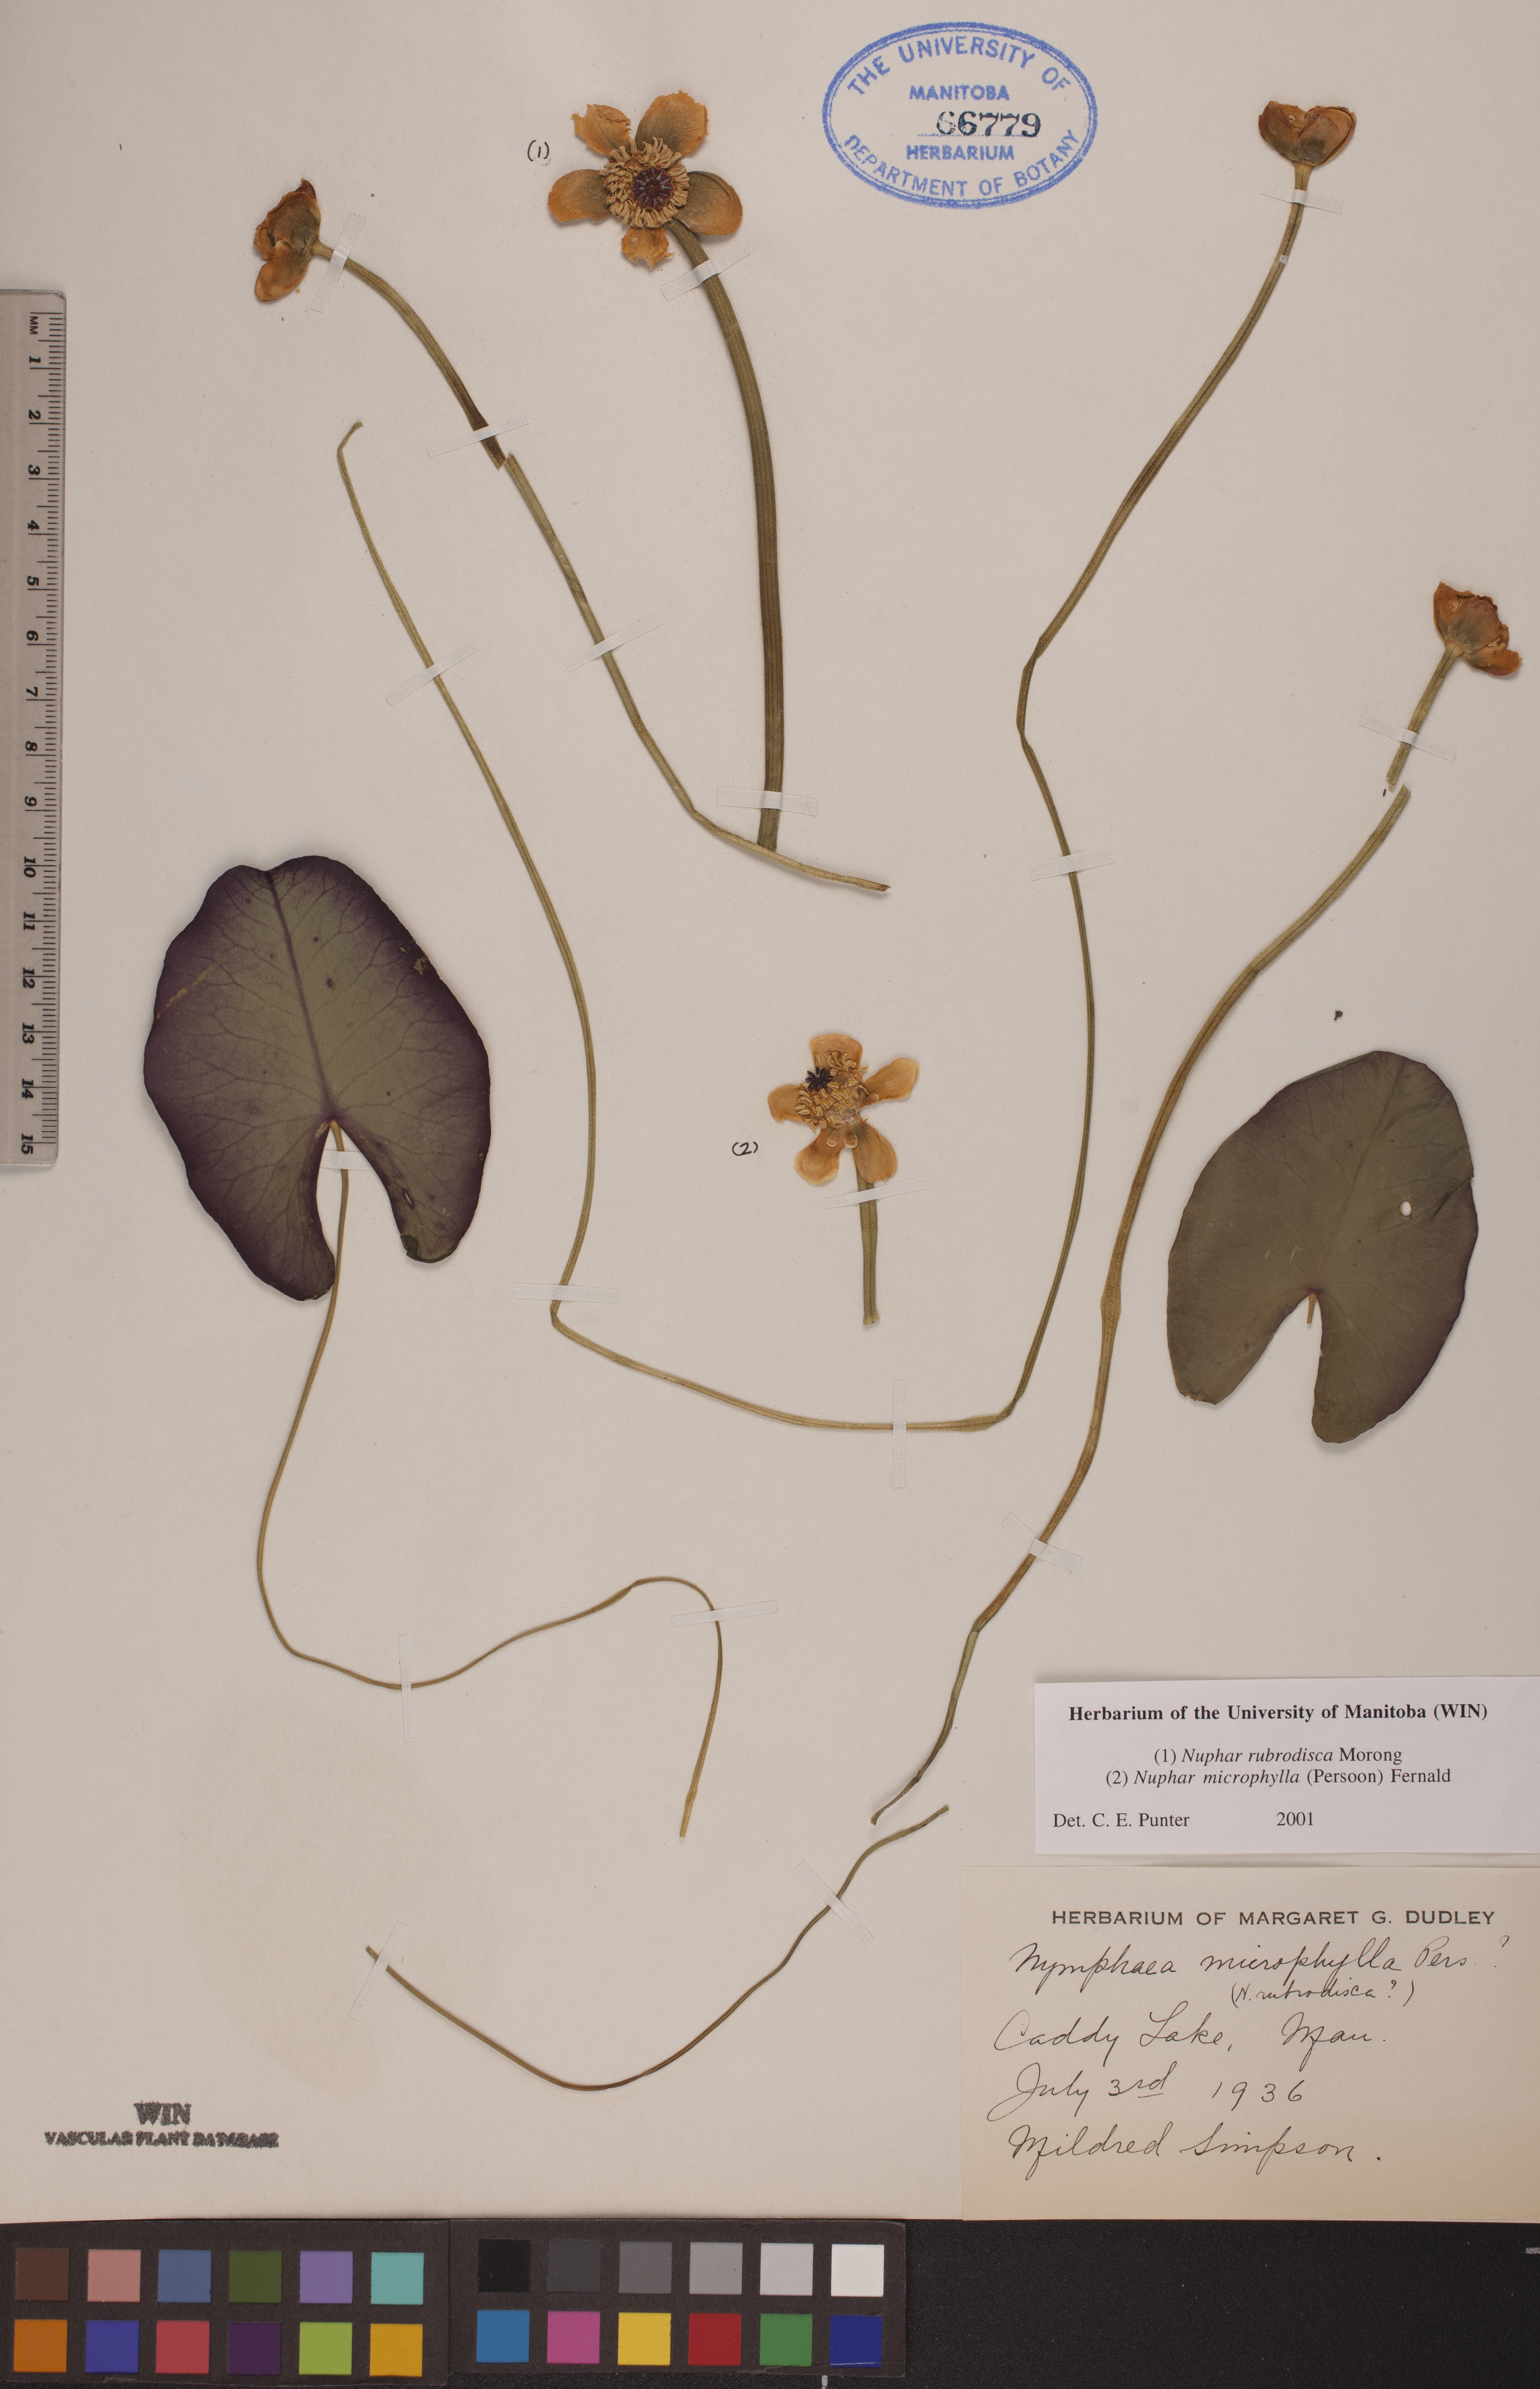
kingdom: Plantae
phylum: Tracheophyta
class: Magnoliopsida
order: Nymphaeales
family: Nymphaeaceae
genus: Nuphar
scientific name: Nuphar rubrodisca
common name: Yellow pond-lily
